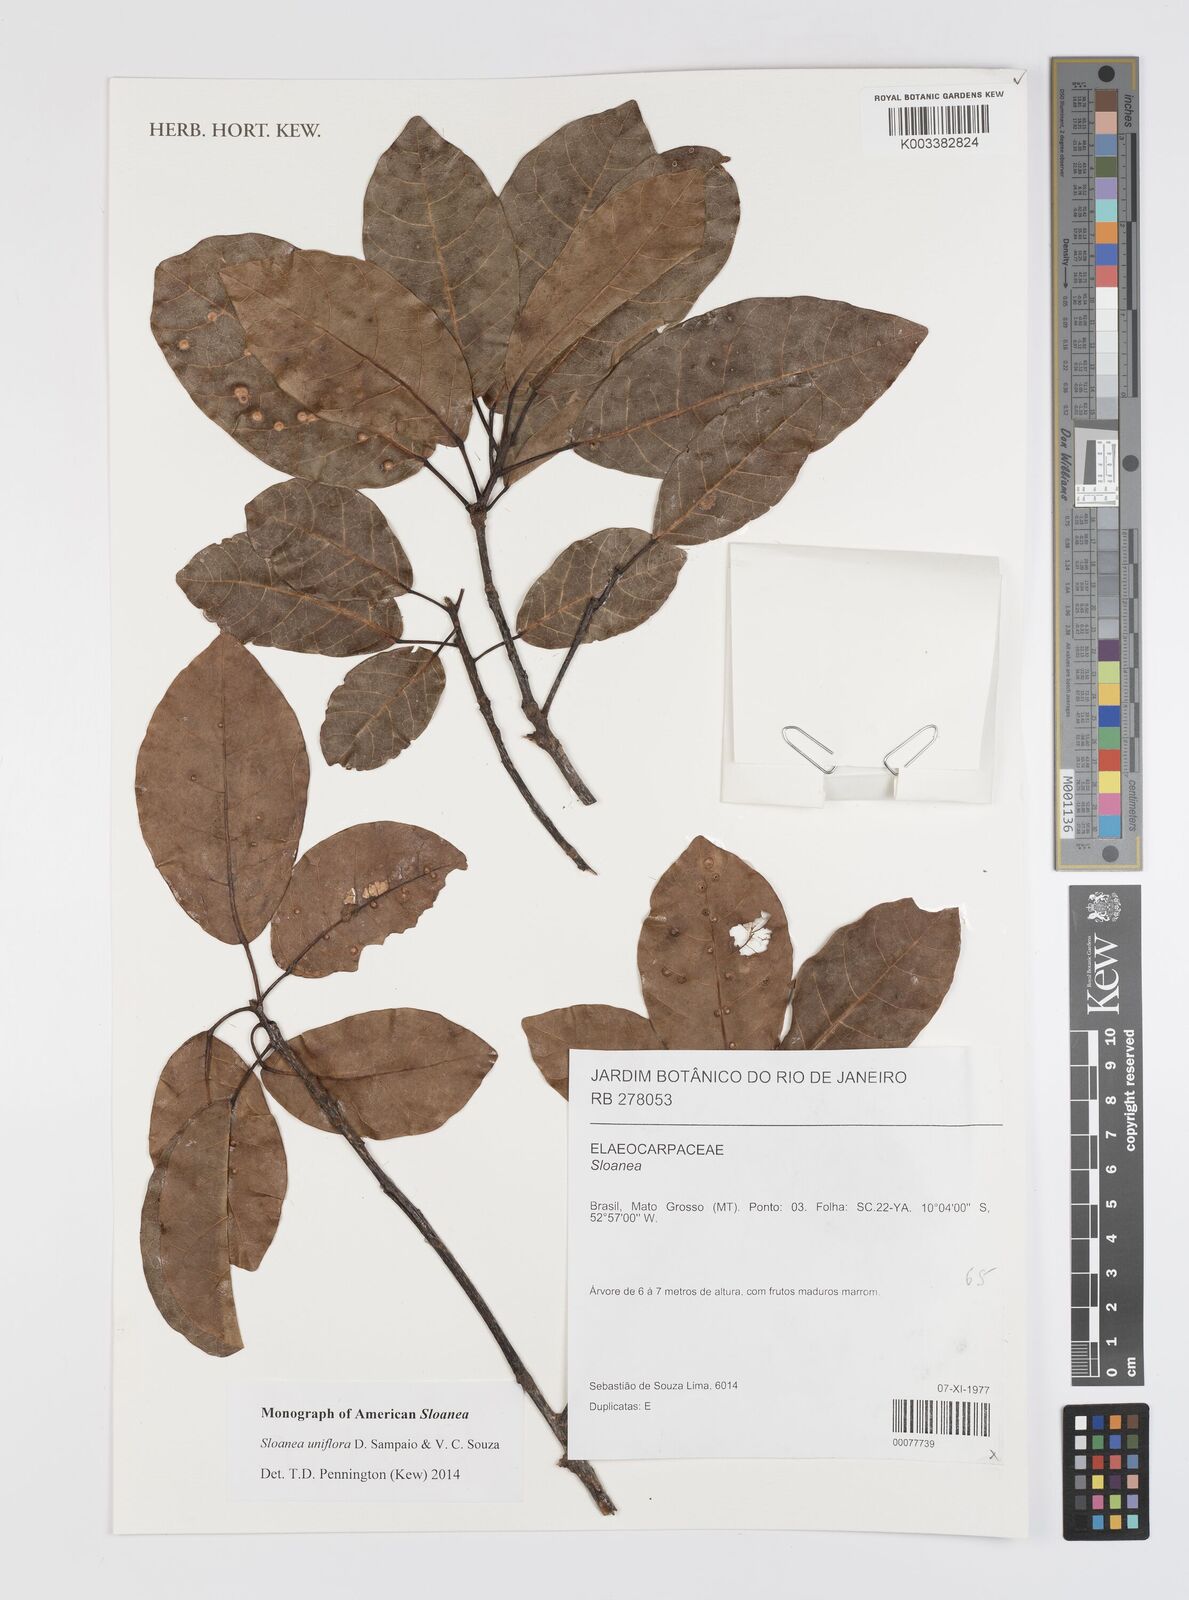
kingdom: Plantae
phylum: Tracheophyta
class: Magnoliopsida
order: Oxalidales
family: Elaeocarpaceae
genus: Sloanea
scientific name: Sloanea uniflora
